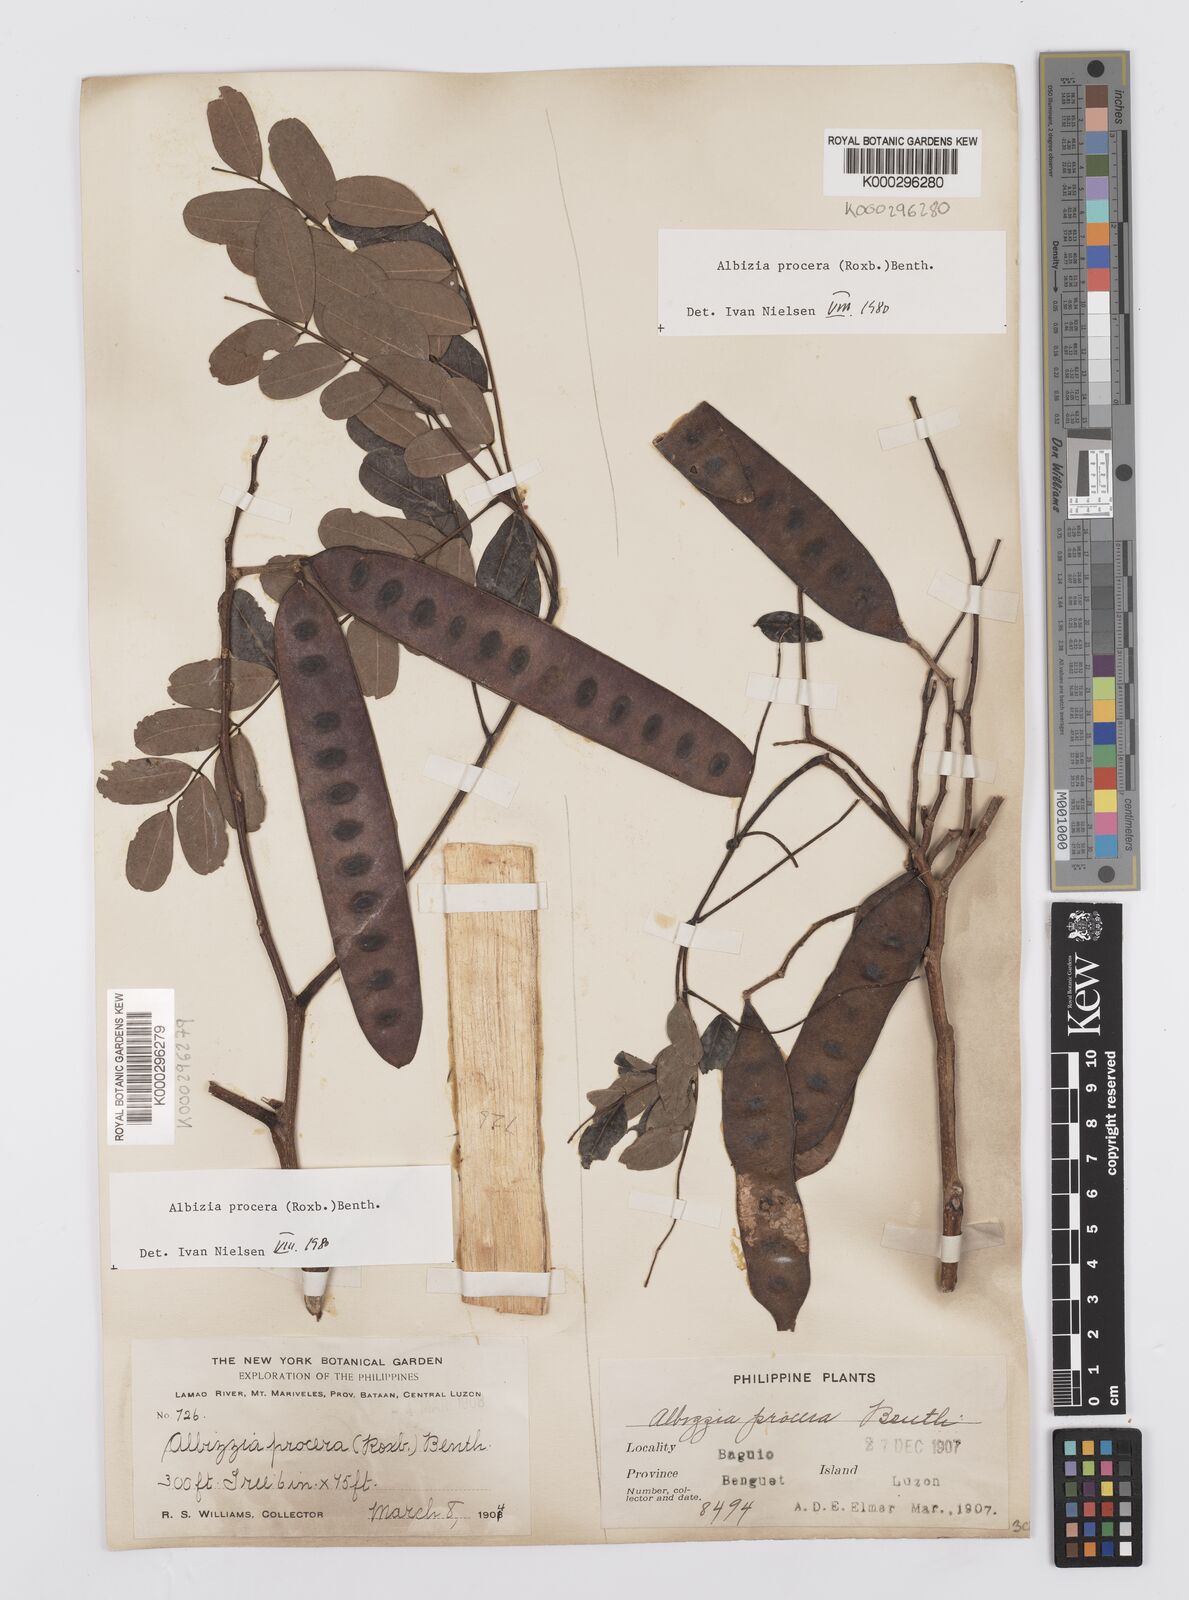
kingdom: Plantae
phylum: Tracheophyta
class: Magnoliopsida
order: Fabales
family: Fabaceae
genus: Albizia
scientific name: Albizia procera
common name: Tall albizia
